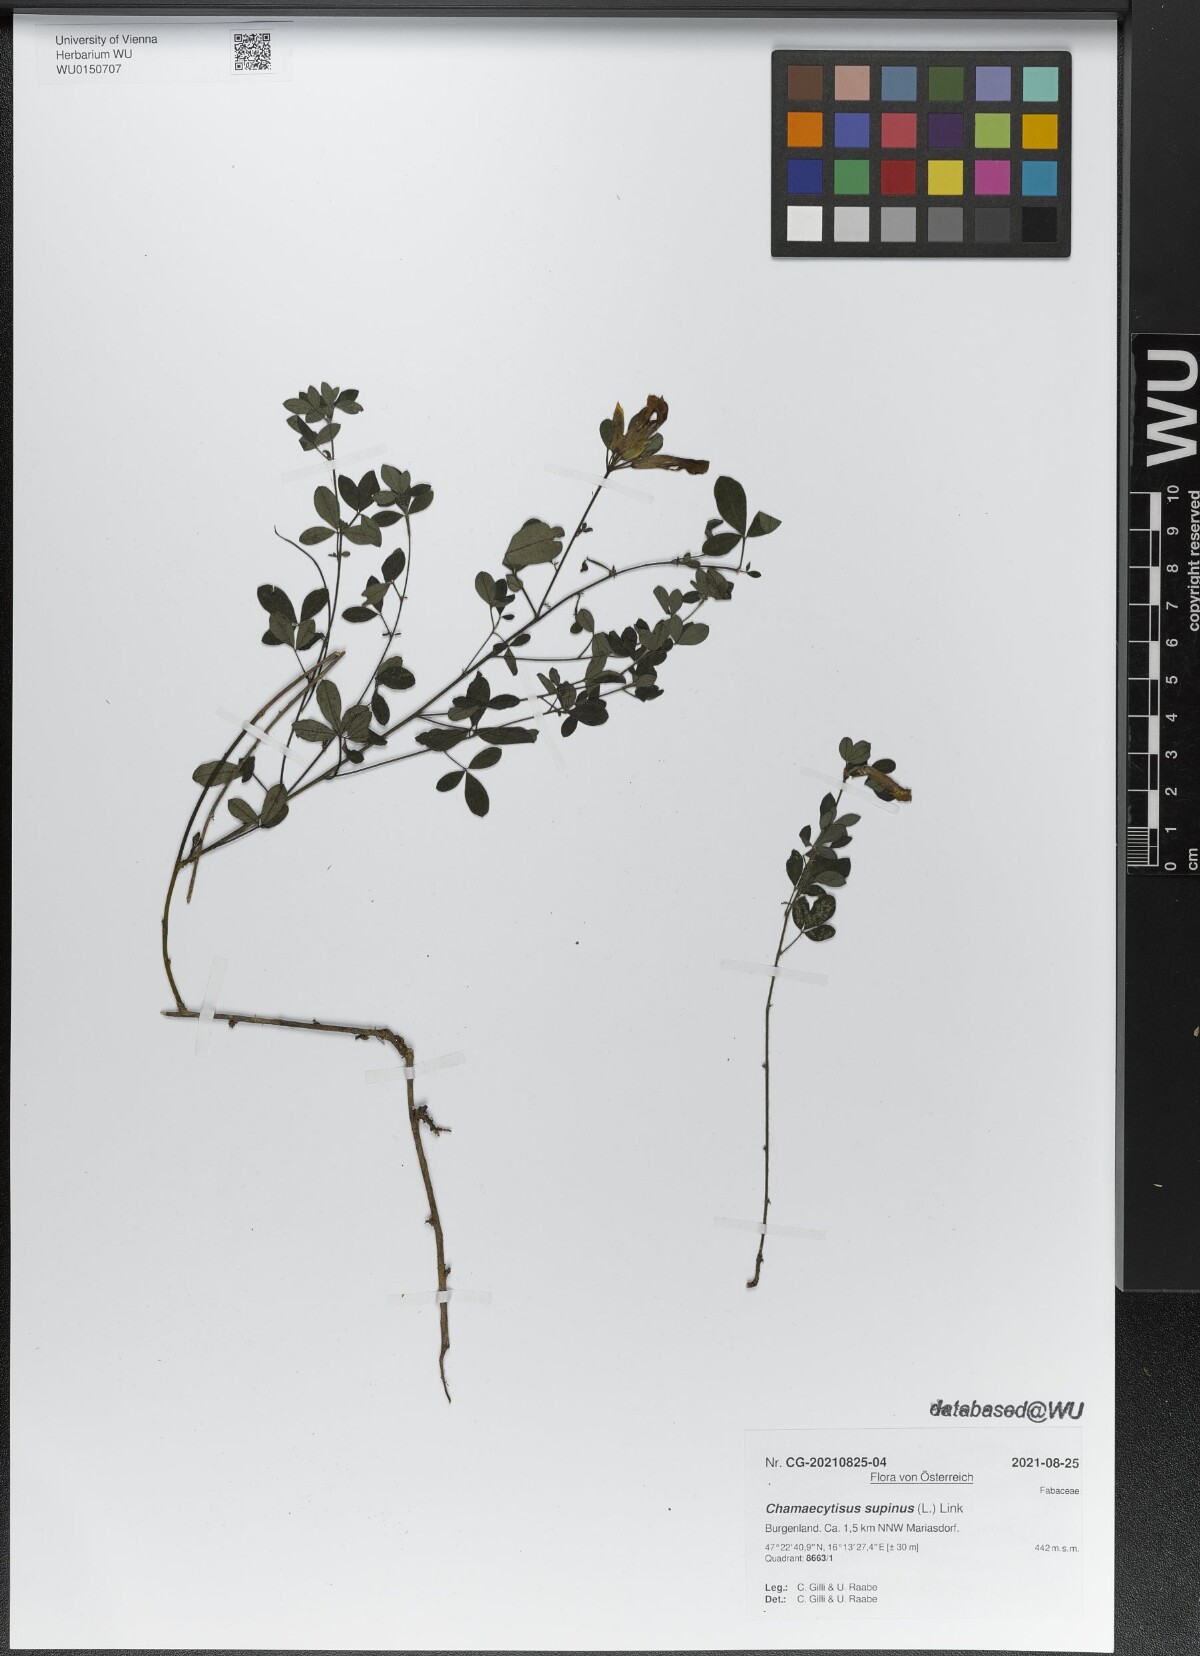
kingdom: Plantae
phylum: Tracheophyta
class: Magnoliopsida
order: Fabales
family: Fabaceae
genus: Chamaecytisus
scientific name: Chamaecytisus supinus
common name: Clustered broom
